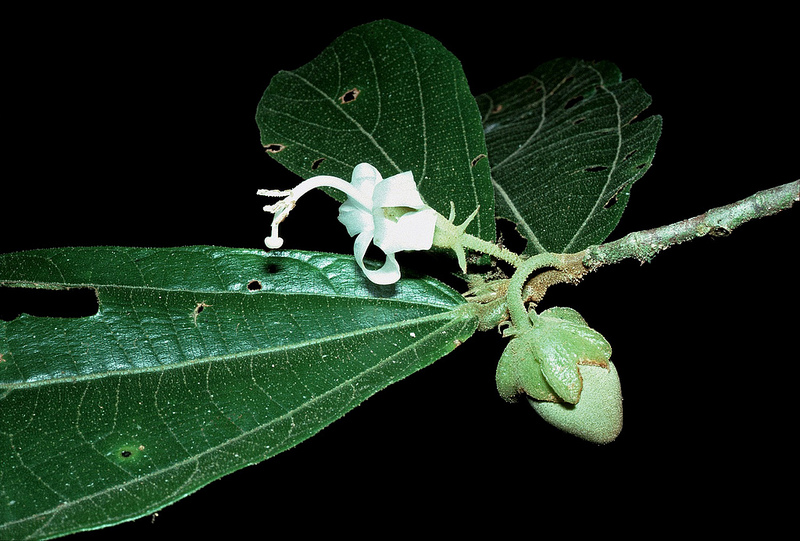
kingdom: Plantae
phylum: Tracheophyta
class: Magnoliopsida
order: Malvales
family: Malvaceae
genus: Matisia
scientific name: Matisia bracteolosa
